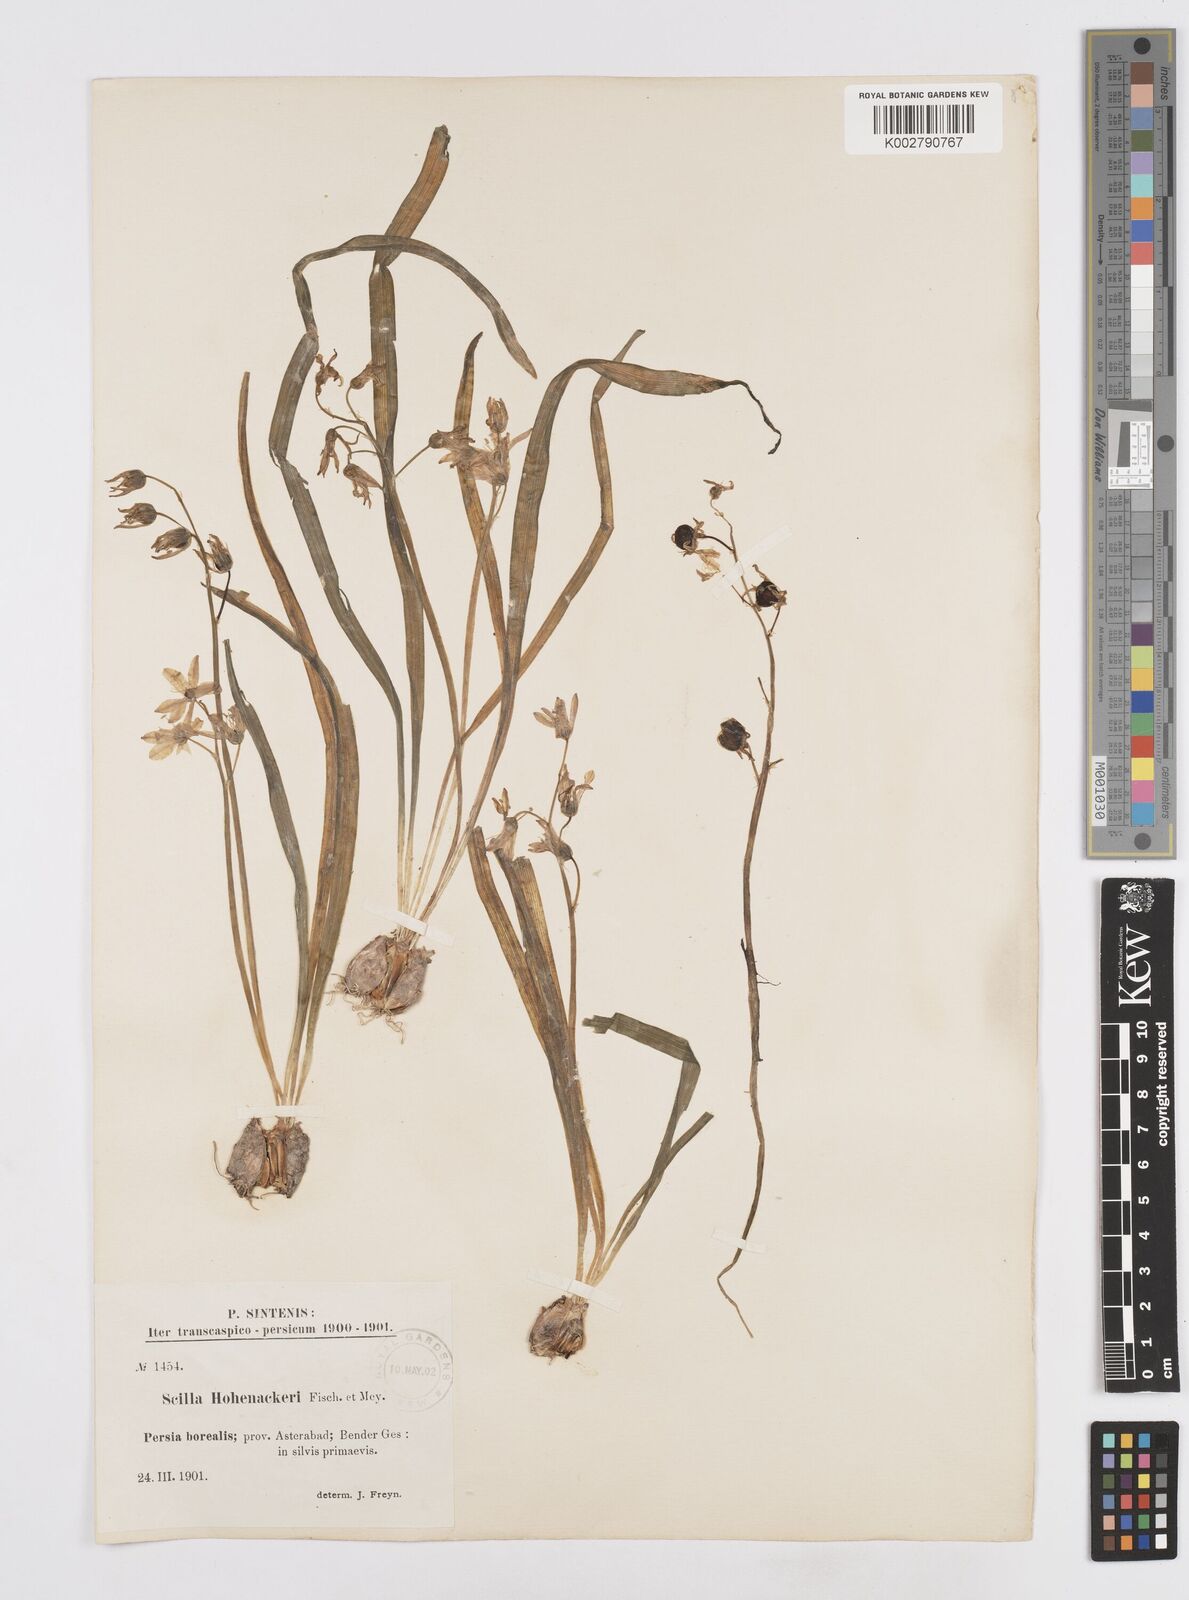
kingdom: Plantae
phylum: Tracheophyta
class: Liliopsida
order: Asparagales
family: Asparagaceae
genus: Fessia
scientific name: Fessia hohenackeri
